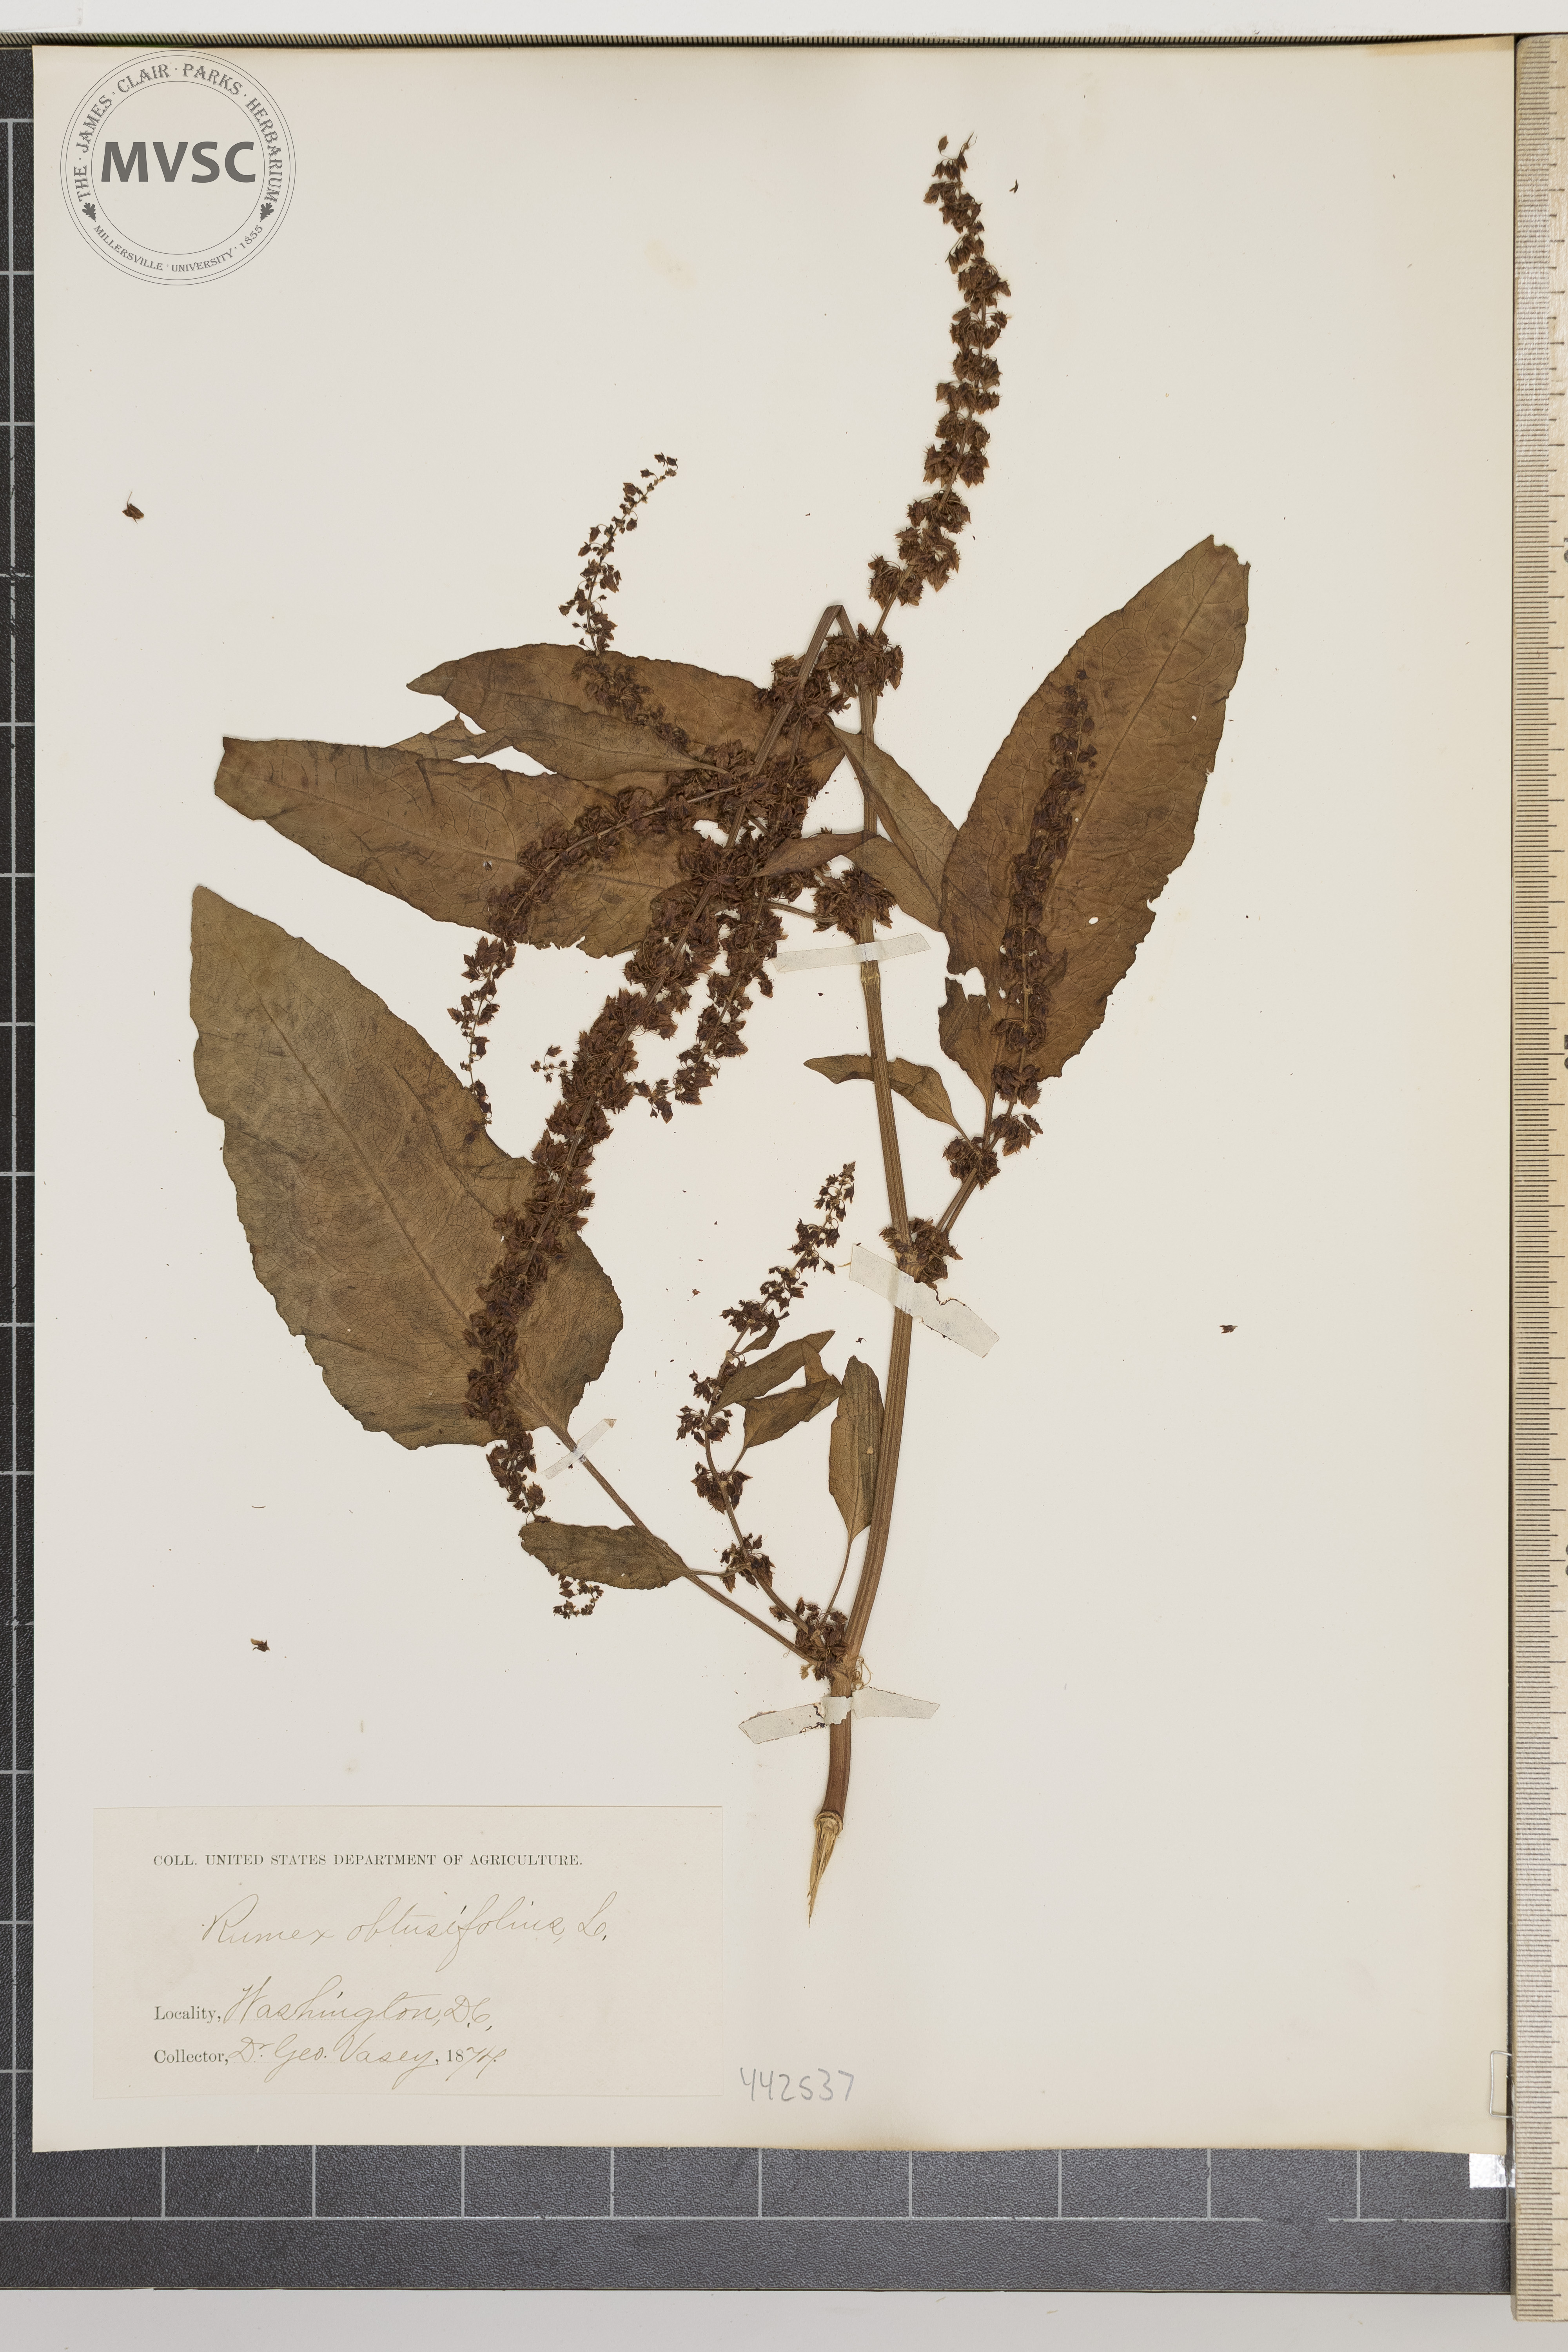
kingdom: Plantae
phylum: Tracheophyta
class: Magnoliopsida
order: Caryophyllales
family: Polygonaceae
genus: Rumex
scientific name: Rumex obtusifolius
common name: Bitter dock
